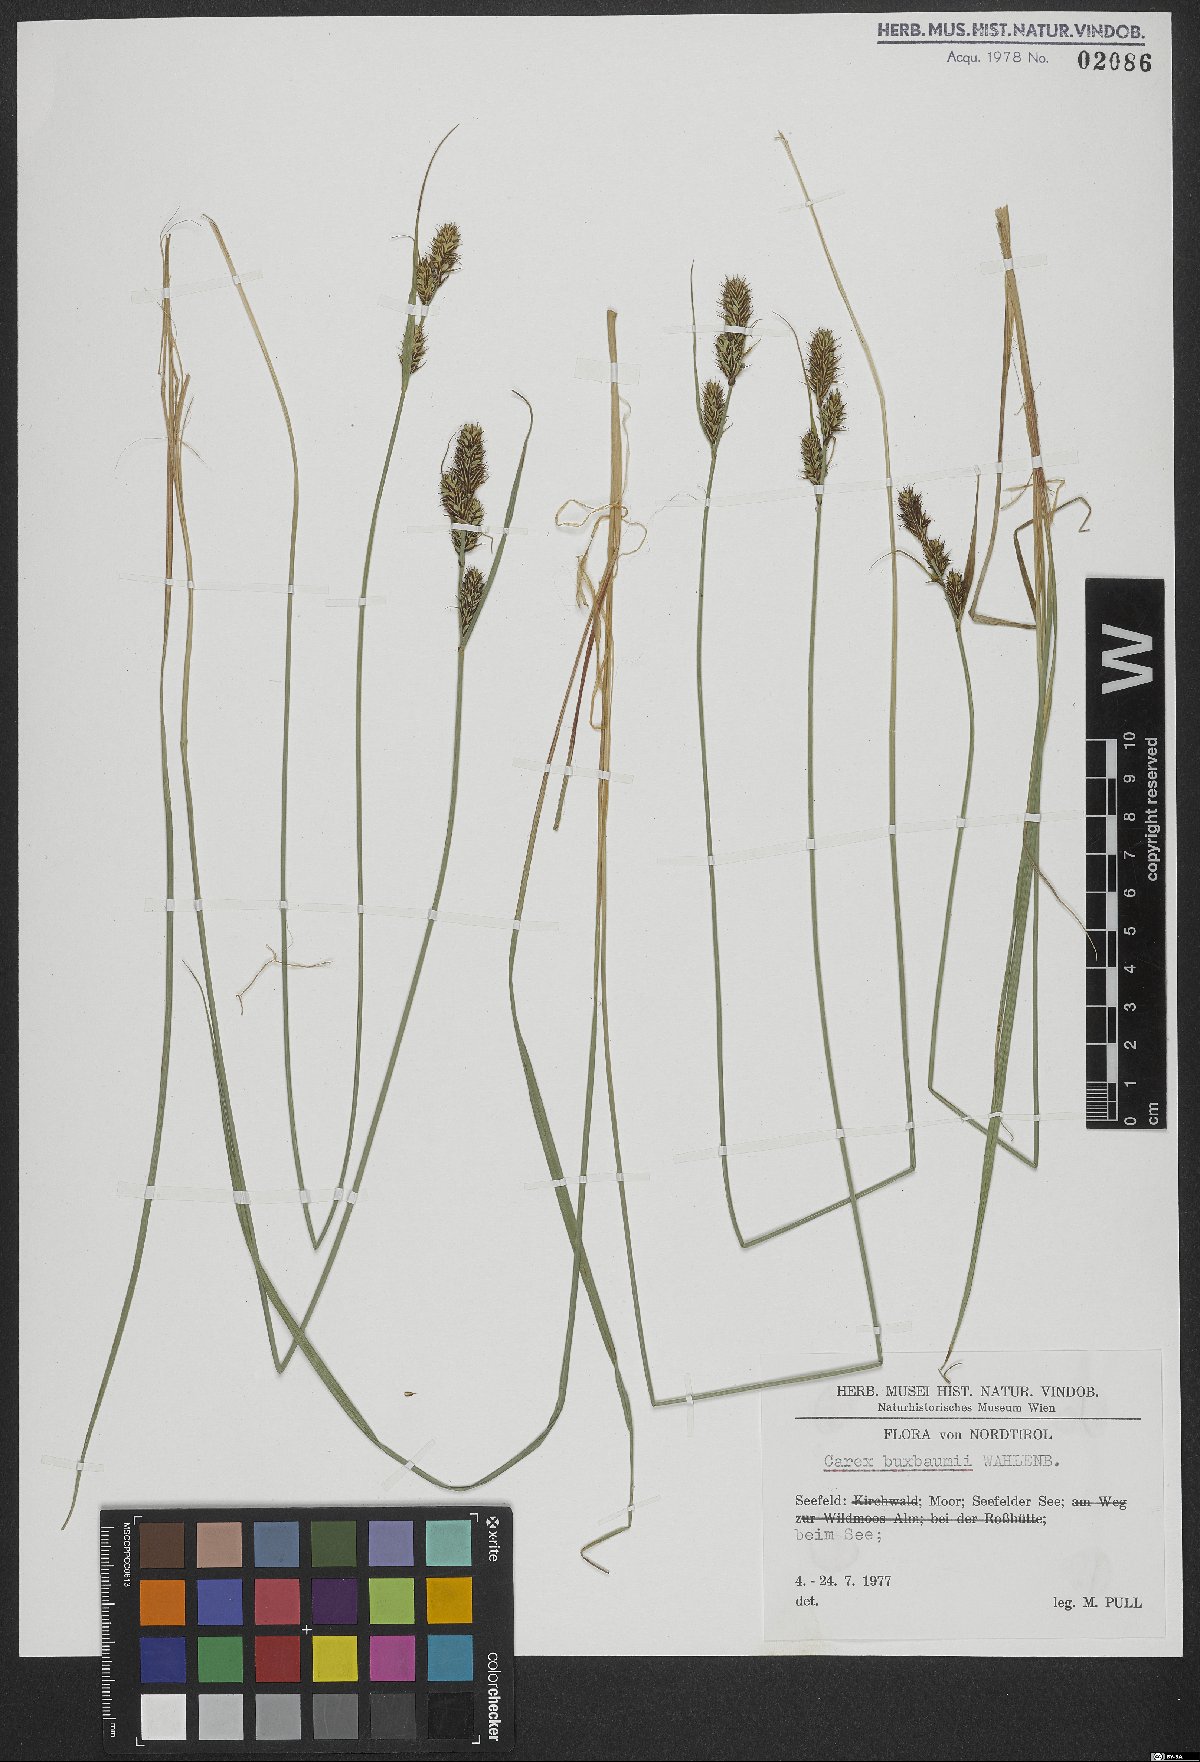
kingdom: Plantae
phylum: Tracheophyta
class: Liliopsida
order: Poales
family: Cyperaceae
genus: Carex
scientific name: Carex buxbaumii
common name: Club sedge
